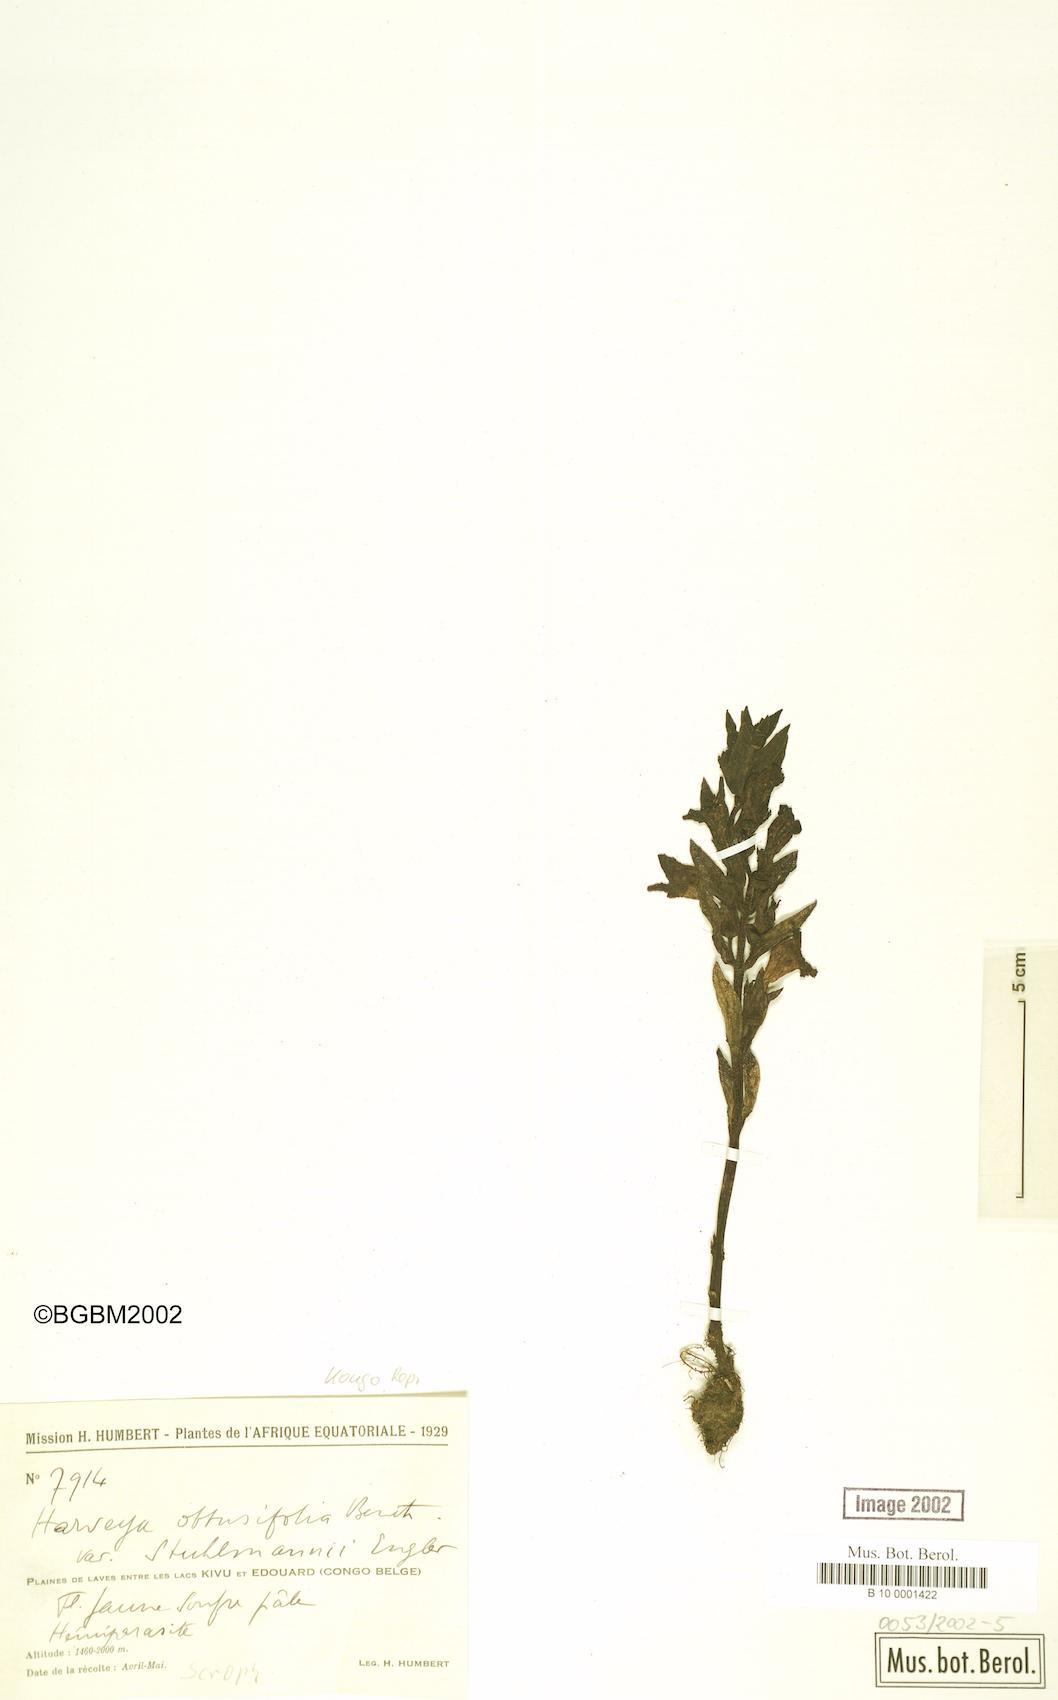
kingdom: Plantae
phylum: Tracheophyta
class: Magnoliopsida
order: Lamiales
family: Orobanchaceae
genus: Harveya
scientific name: Harveya obtusifolia
